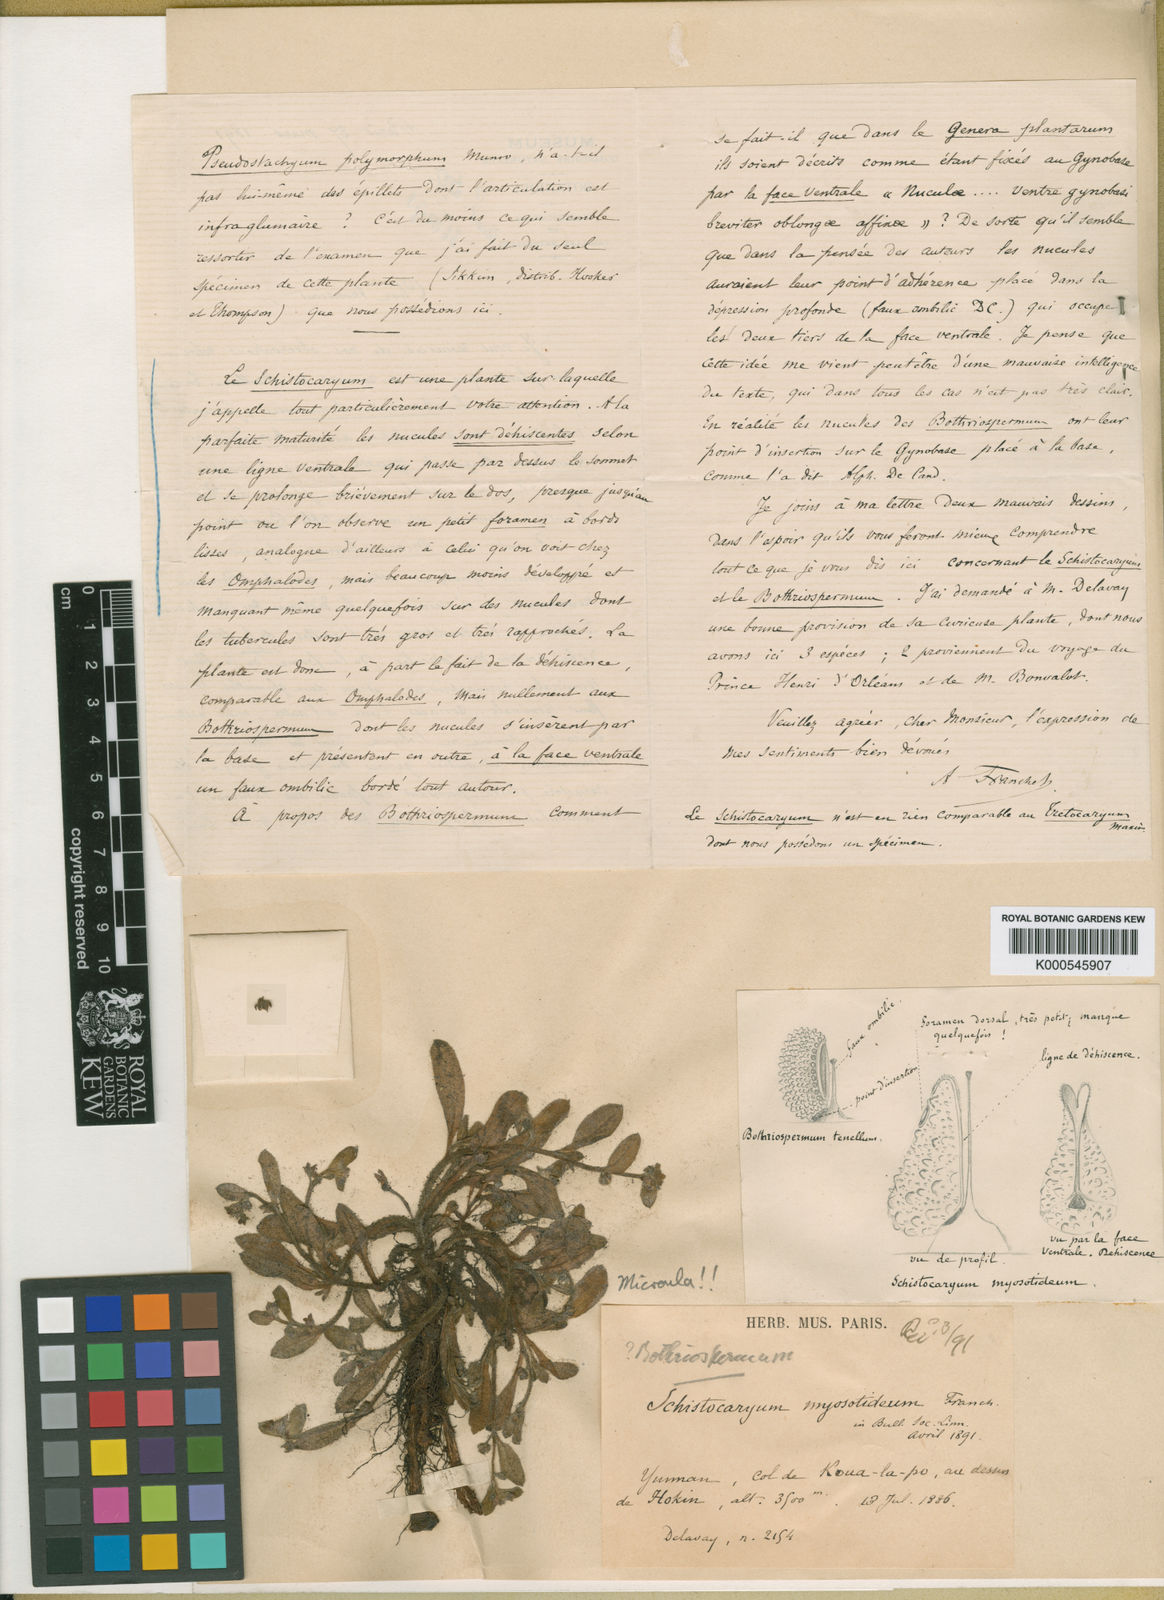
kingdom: Plantae
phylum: Tracheophyta
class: Magnoliopsida
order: Boraginales
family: Boraginaceae
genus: Microula
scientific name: Microula myosotidea
